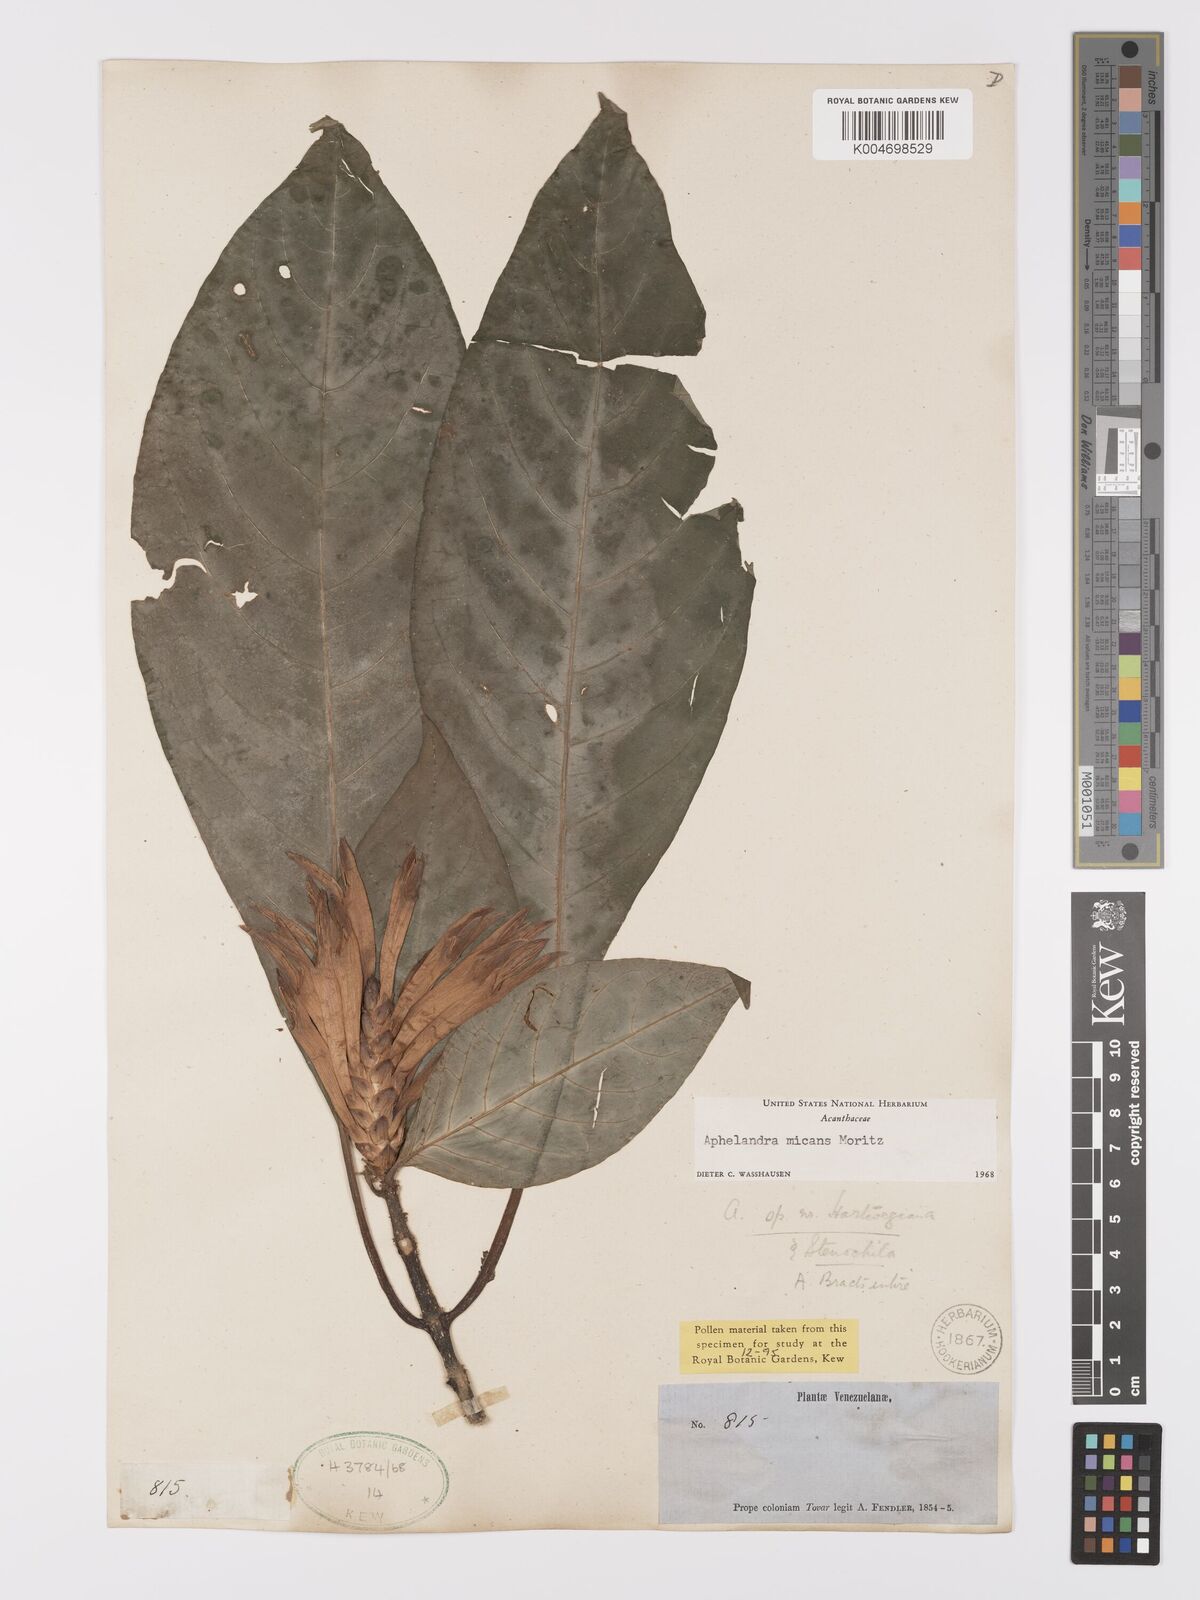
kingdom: Plantae
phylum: Tracheophyta
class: Magnoliopsida
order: Lamiales
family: Acanthaceae
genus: Aphelandra
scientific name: Aphelandra micans
